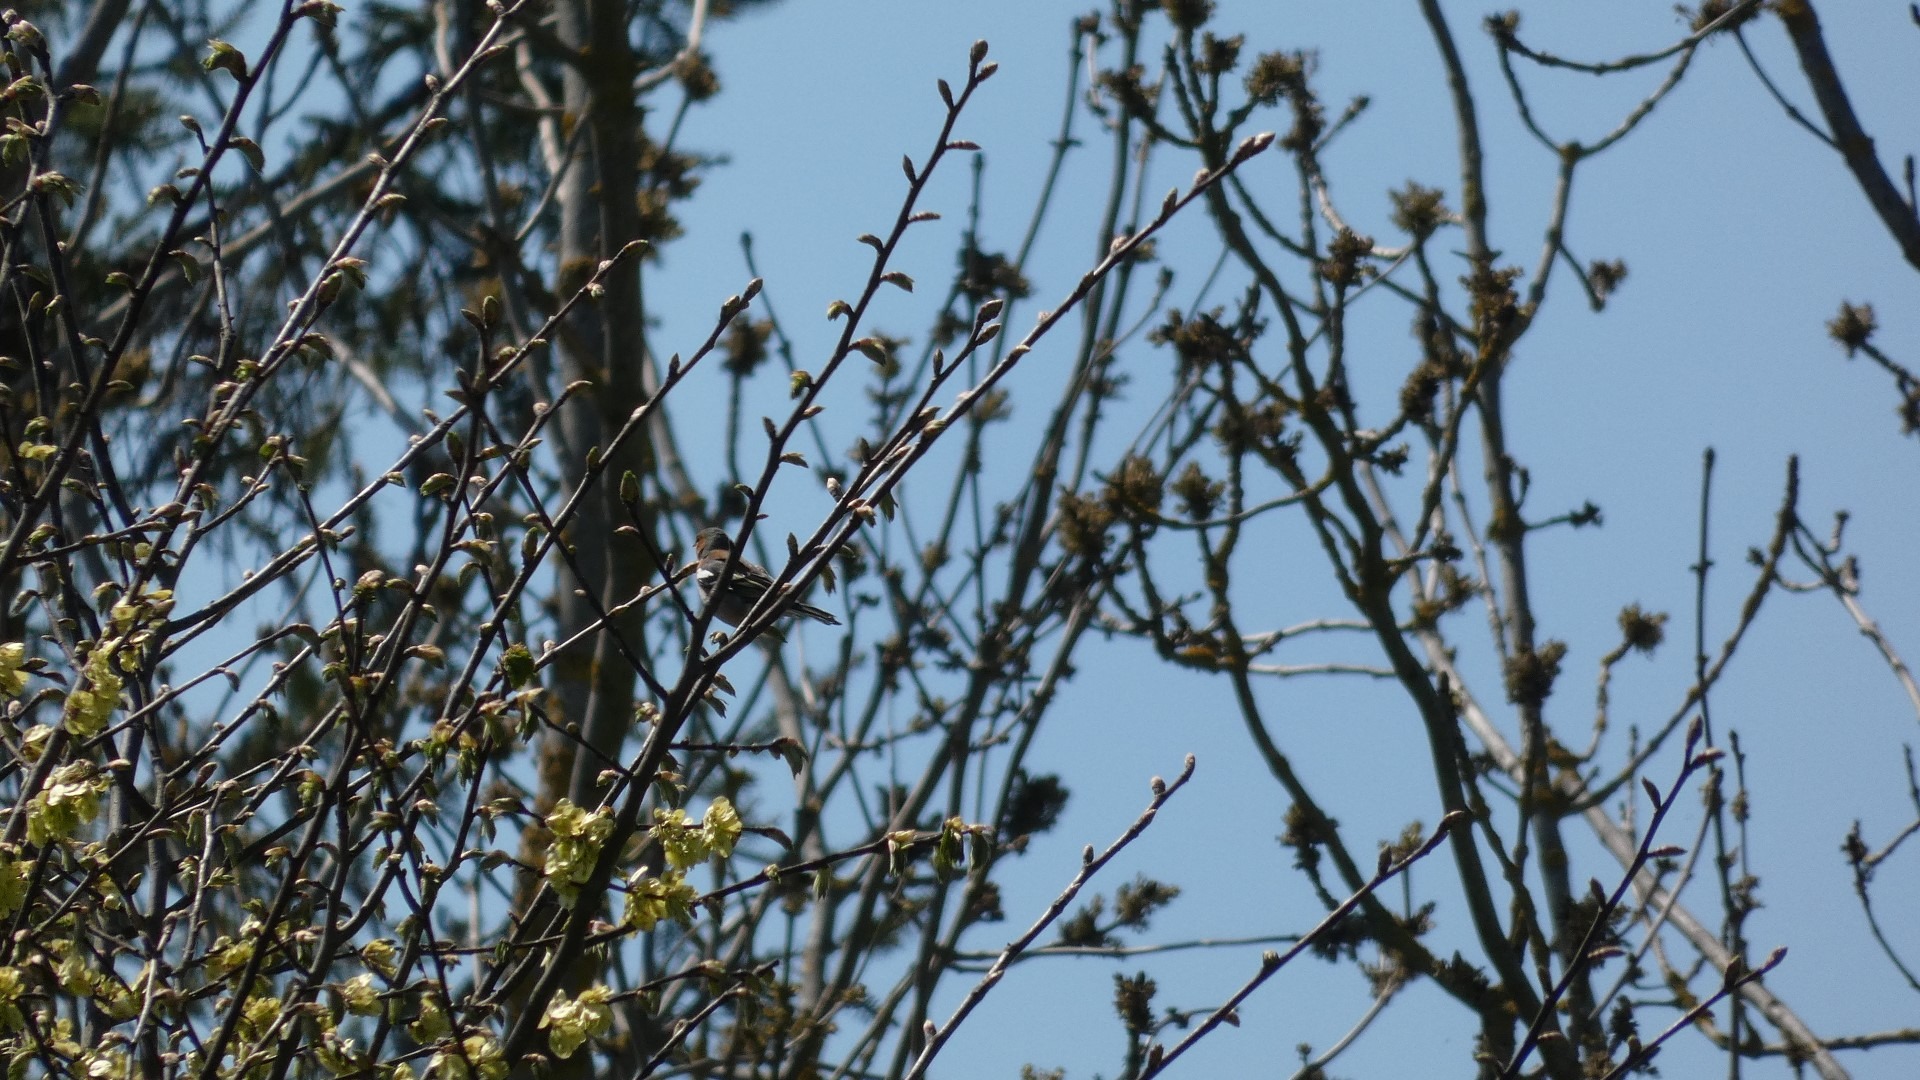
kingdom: Animalia
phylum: Chordata
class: Aves
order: Passeriformes
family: Fringillidae
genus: Fringilla
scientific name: Fringilla coelebs
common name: Bogfinke
